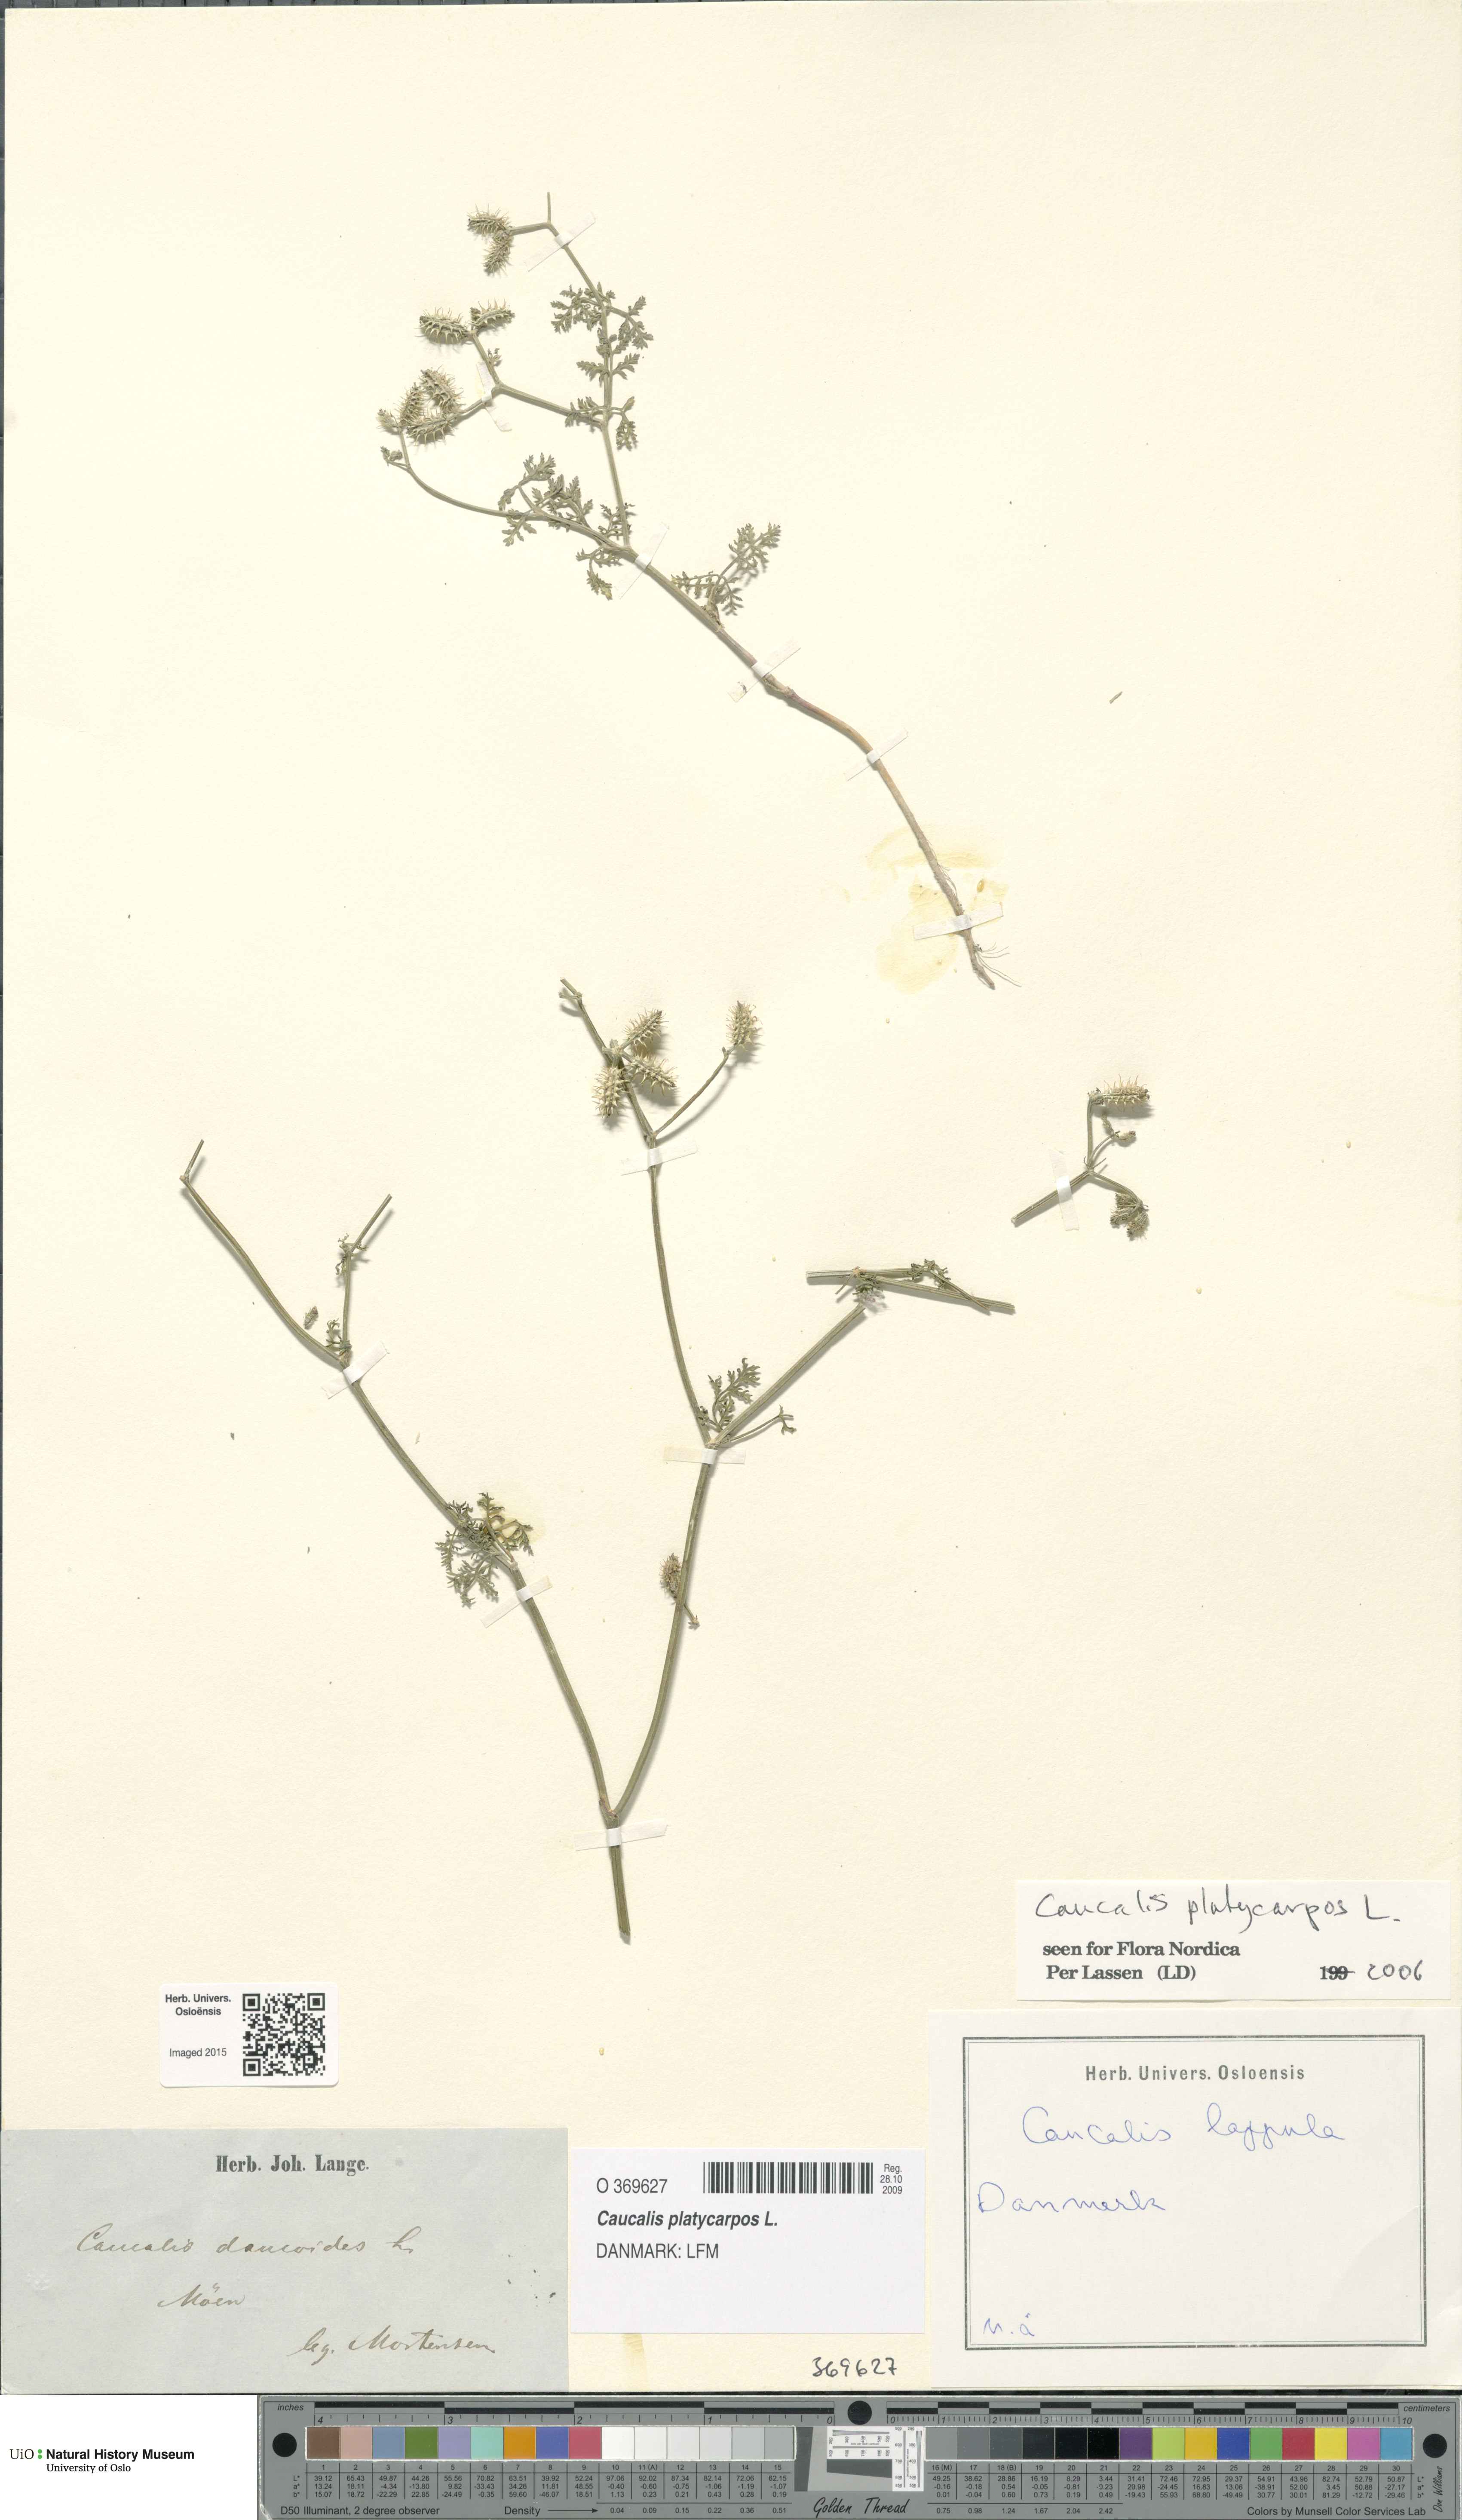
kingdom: Plantae
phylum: Tracheophyta
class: Magnoliopsida
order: Apiales
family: Apiaceae
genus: Caucalis
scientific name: Caucalis platycarpos
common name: Small bur-parsley
